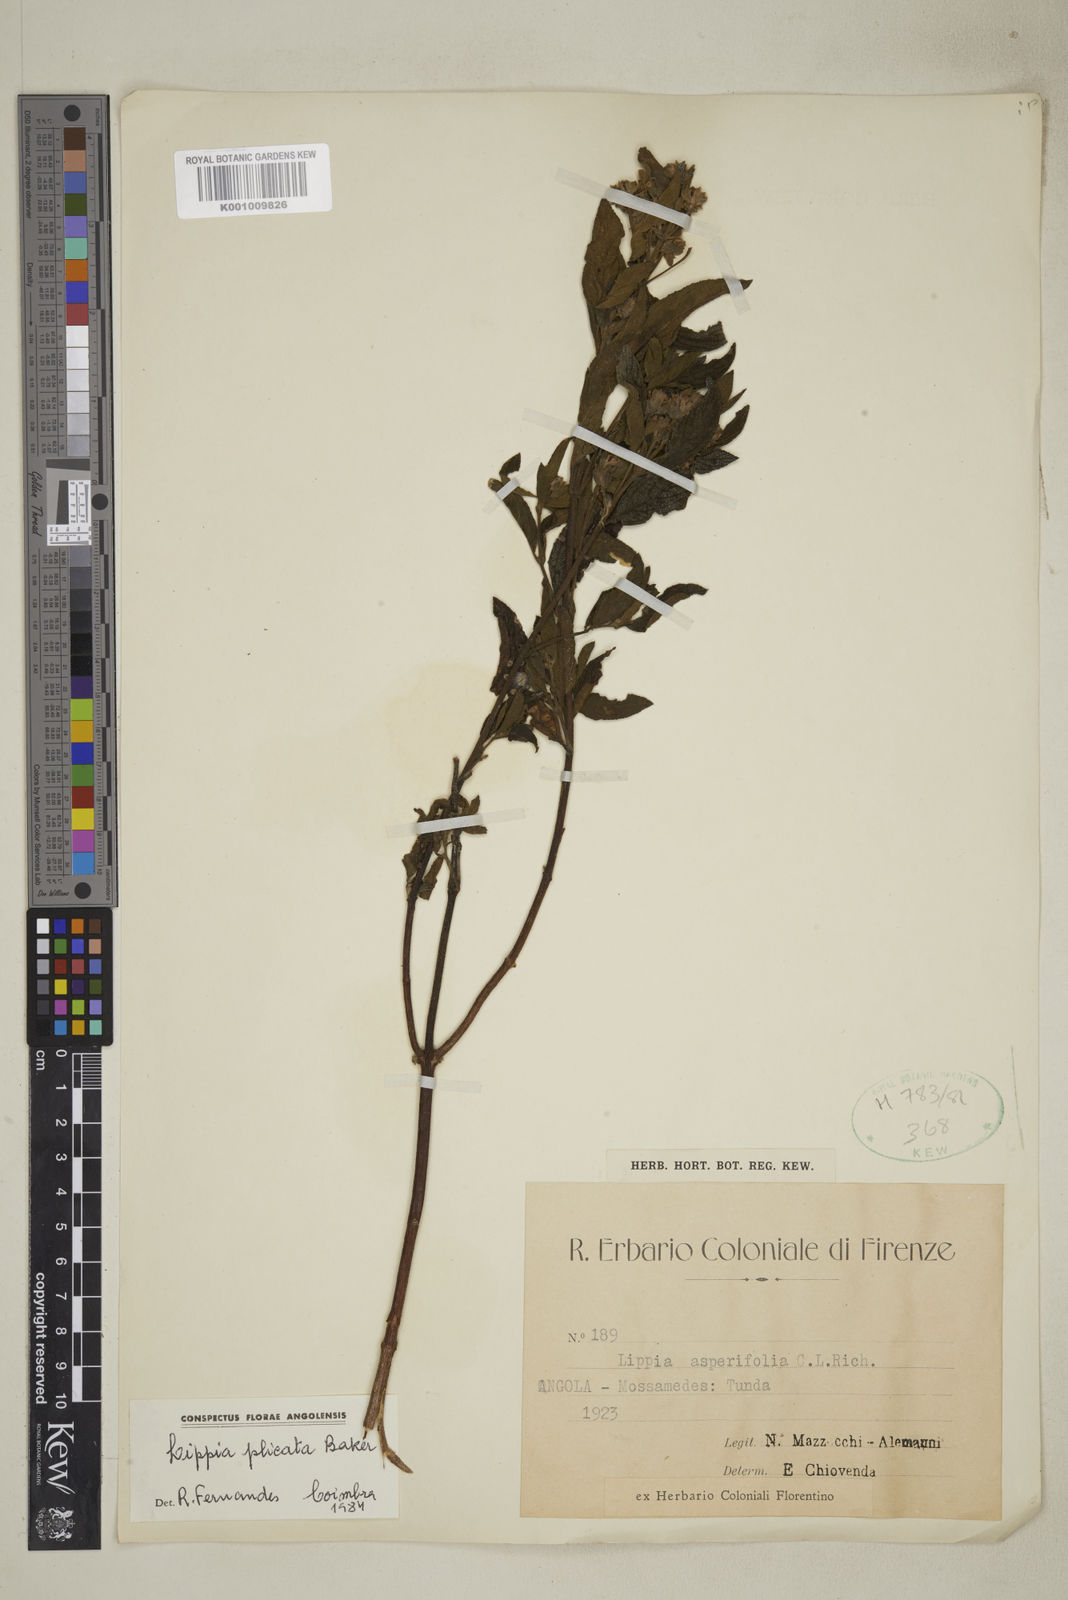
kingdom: Plantae
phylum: Tracheophyta
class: Magnoliopsida
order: Lamiales
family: Verbenaceae
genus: Lippia
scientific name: Lippia plicata
